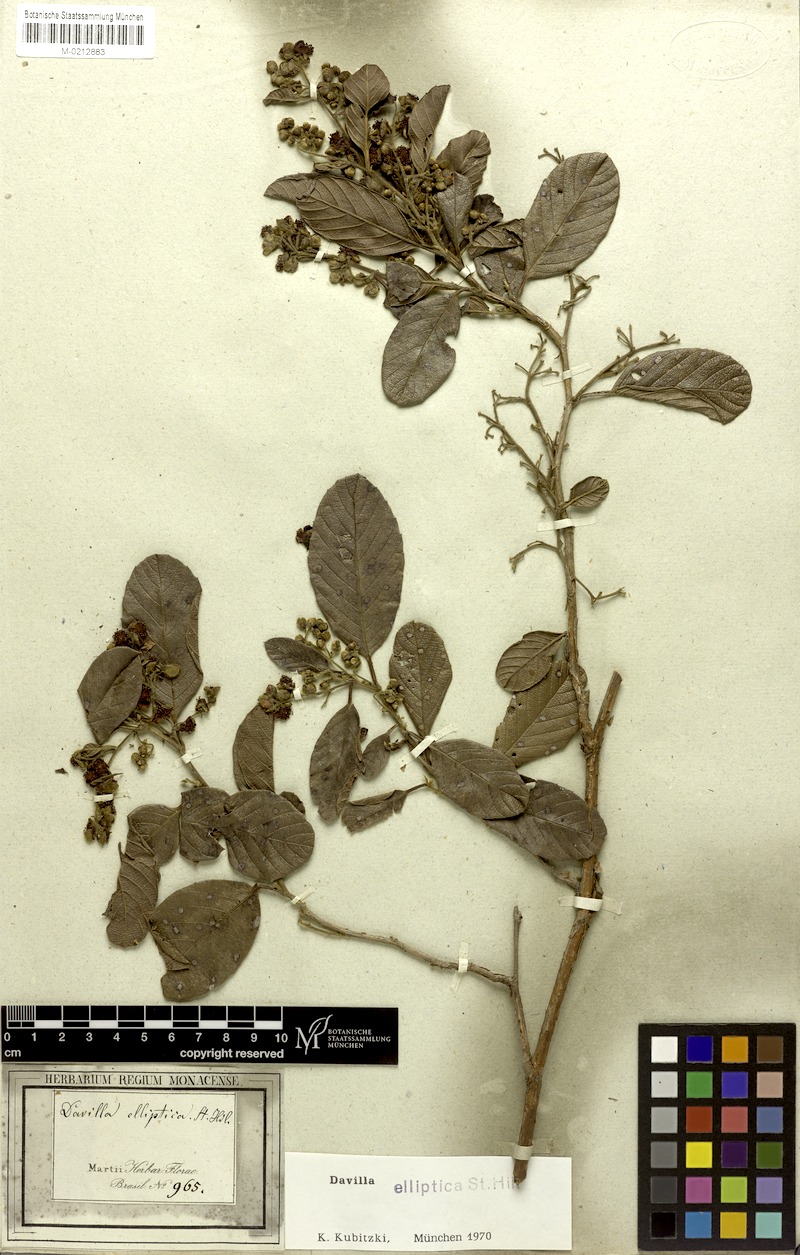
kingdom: Plantae
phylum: Tracheophyta
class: Magnoliopsida
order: Dilleniales
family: Dilleniaceae
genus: Davilla
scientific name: Davilla elliptica
